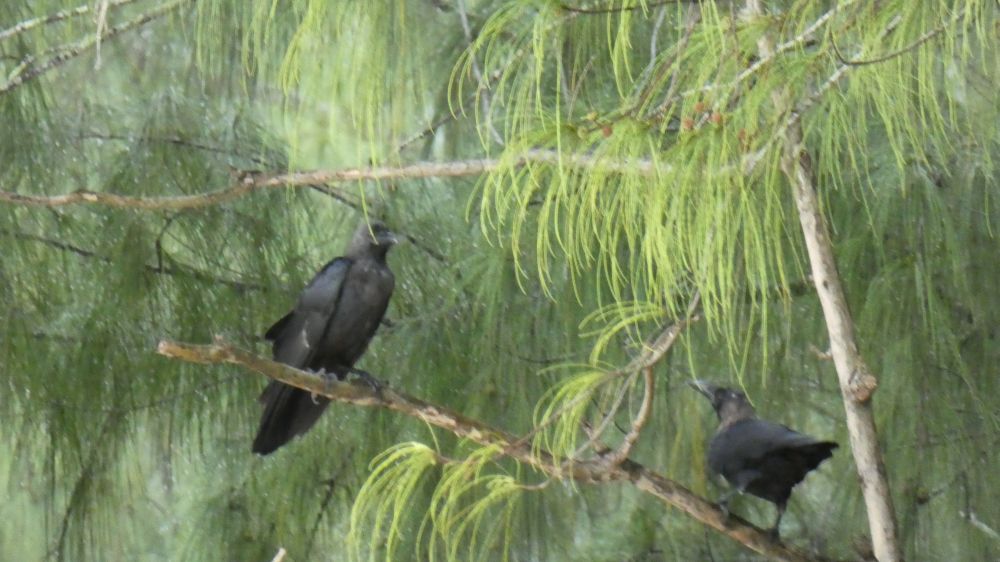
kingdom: Animalia
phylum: Chordata
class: Aves
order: Passeriformes
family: Corvidae
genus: Corvus
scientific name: Corvus splendens
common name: House crow
